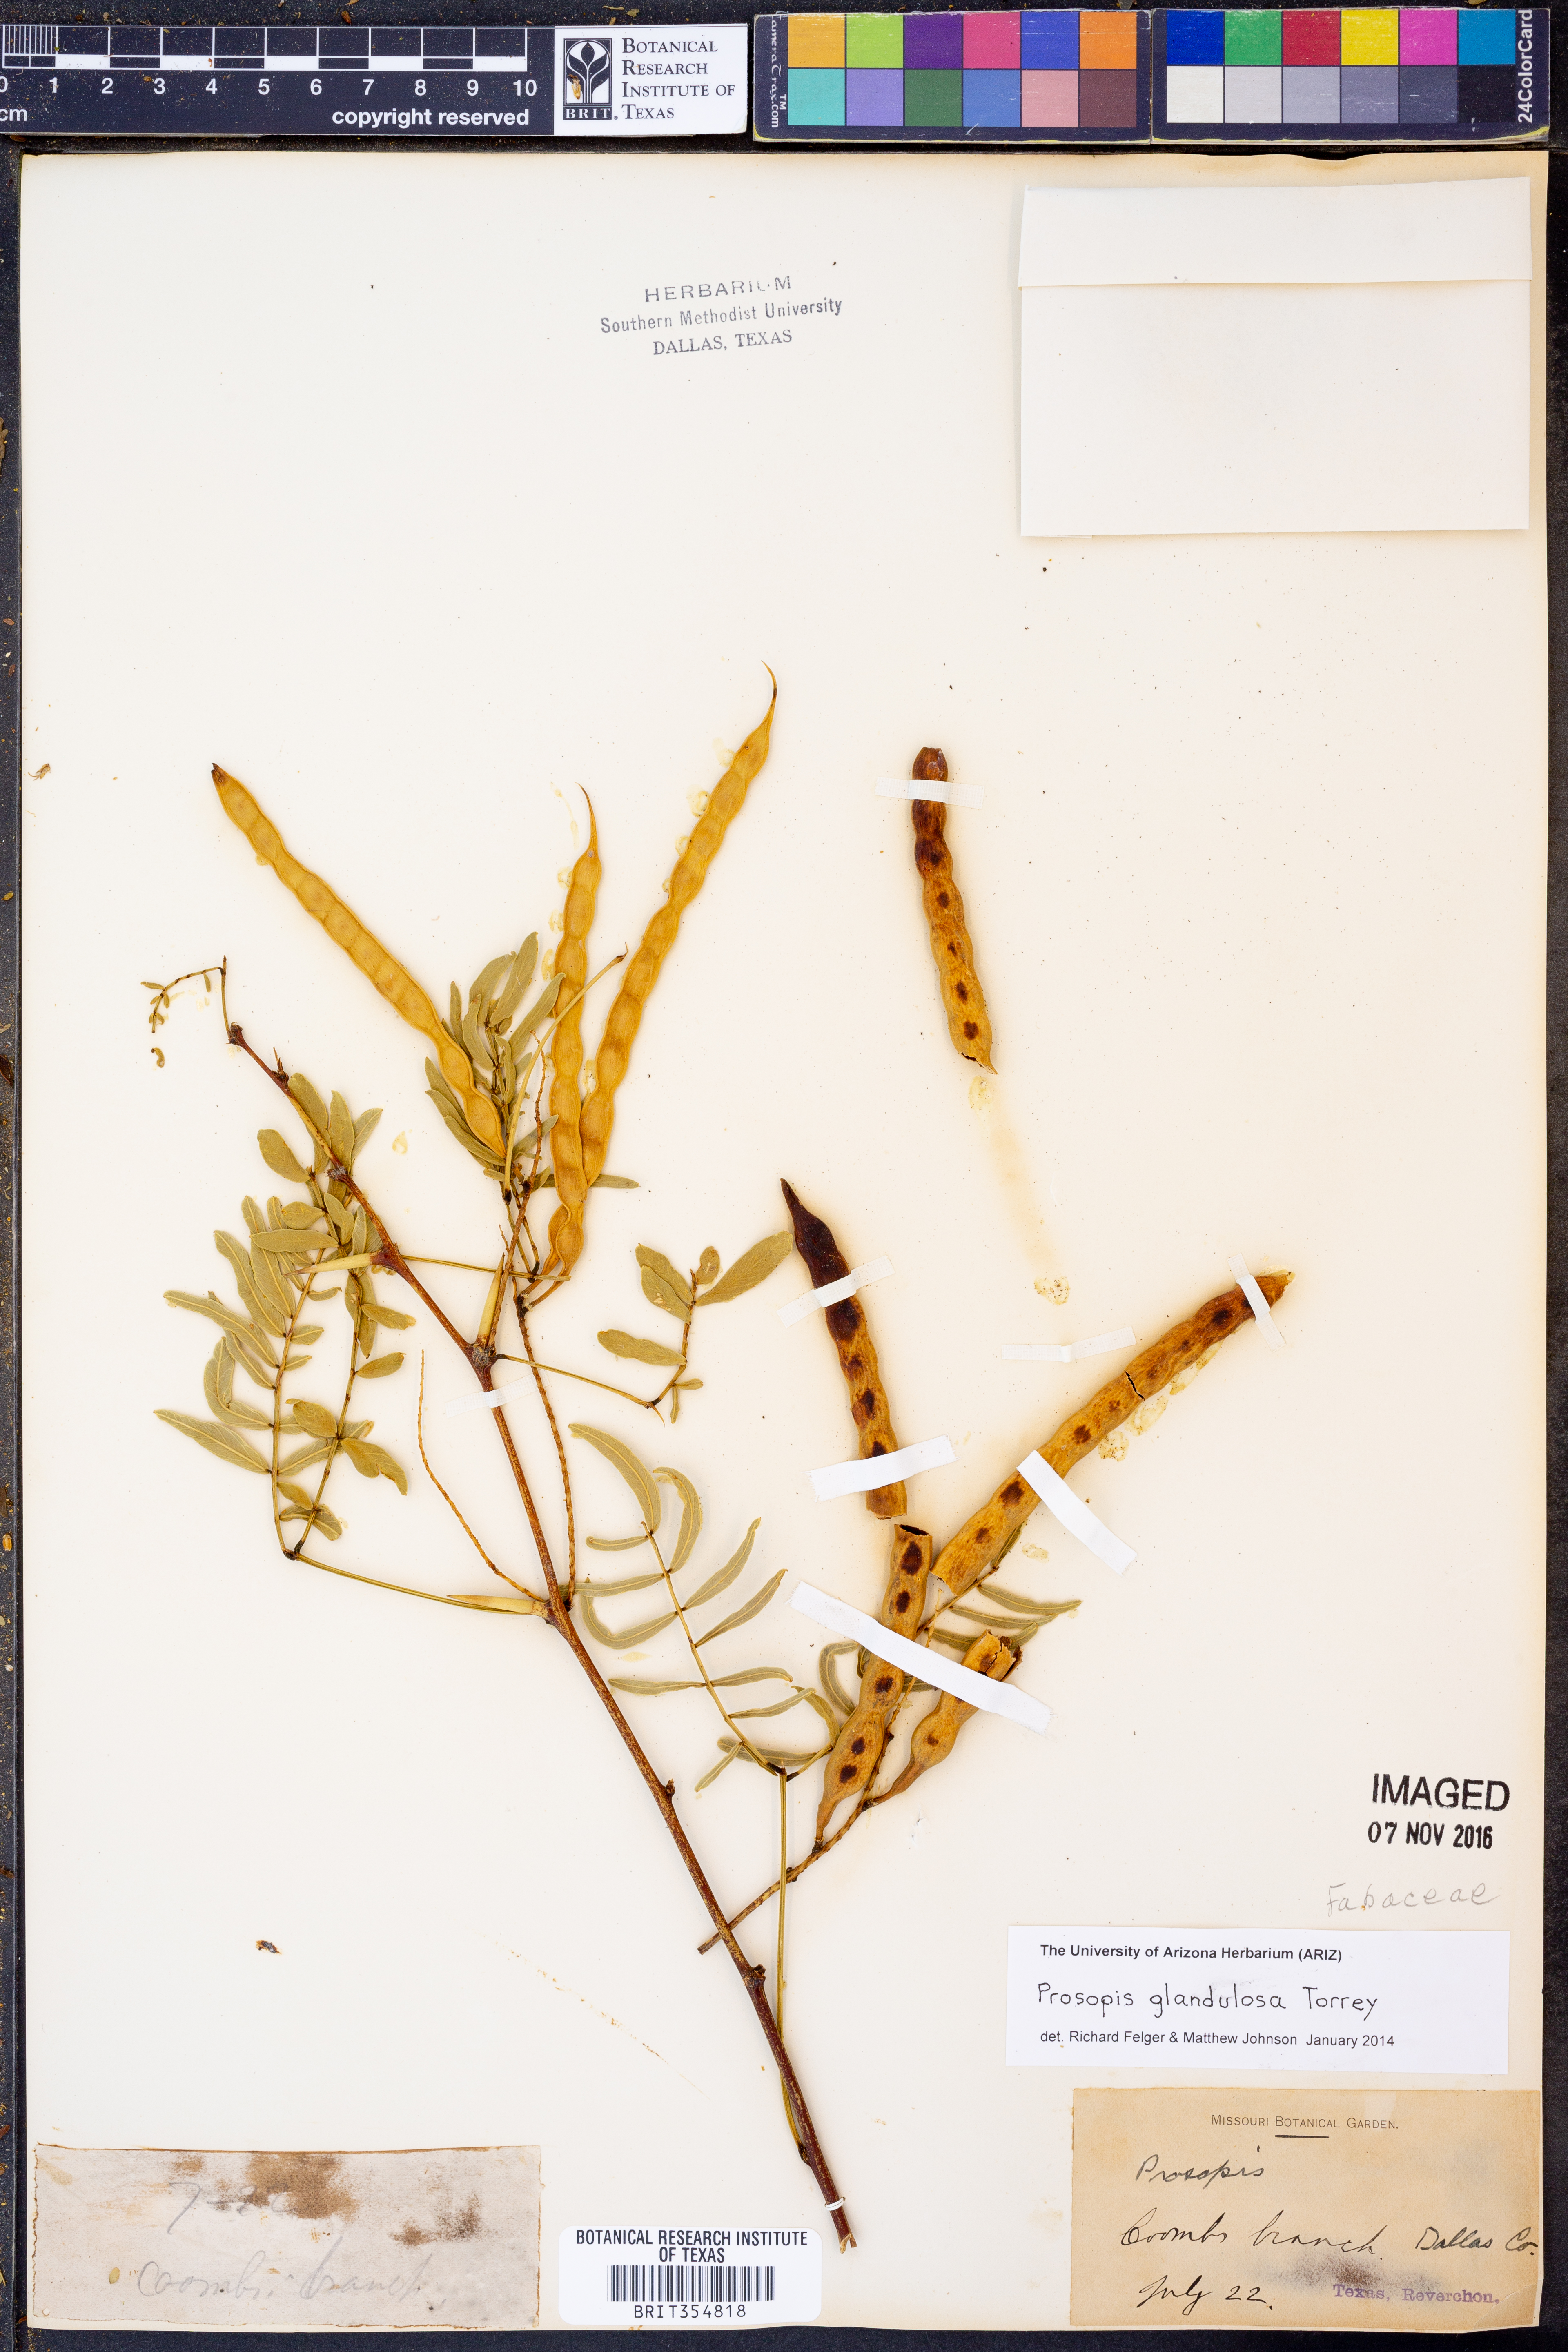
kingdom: Plantae
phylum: Tracheophyta
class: Magnoliopsida
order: Fabales
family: Fabaceae
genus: Prosopis
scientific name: Prosopis glandulosa
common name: Honey mesquite
